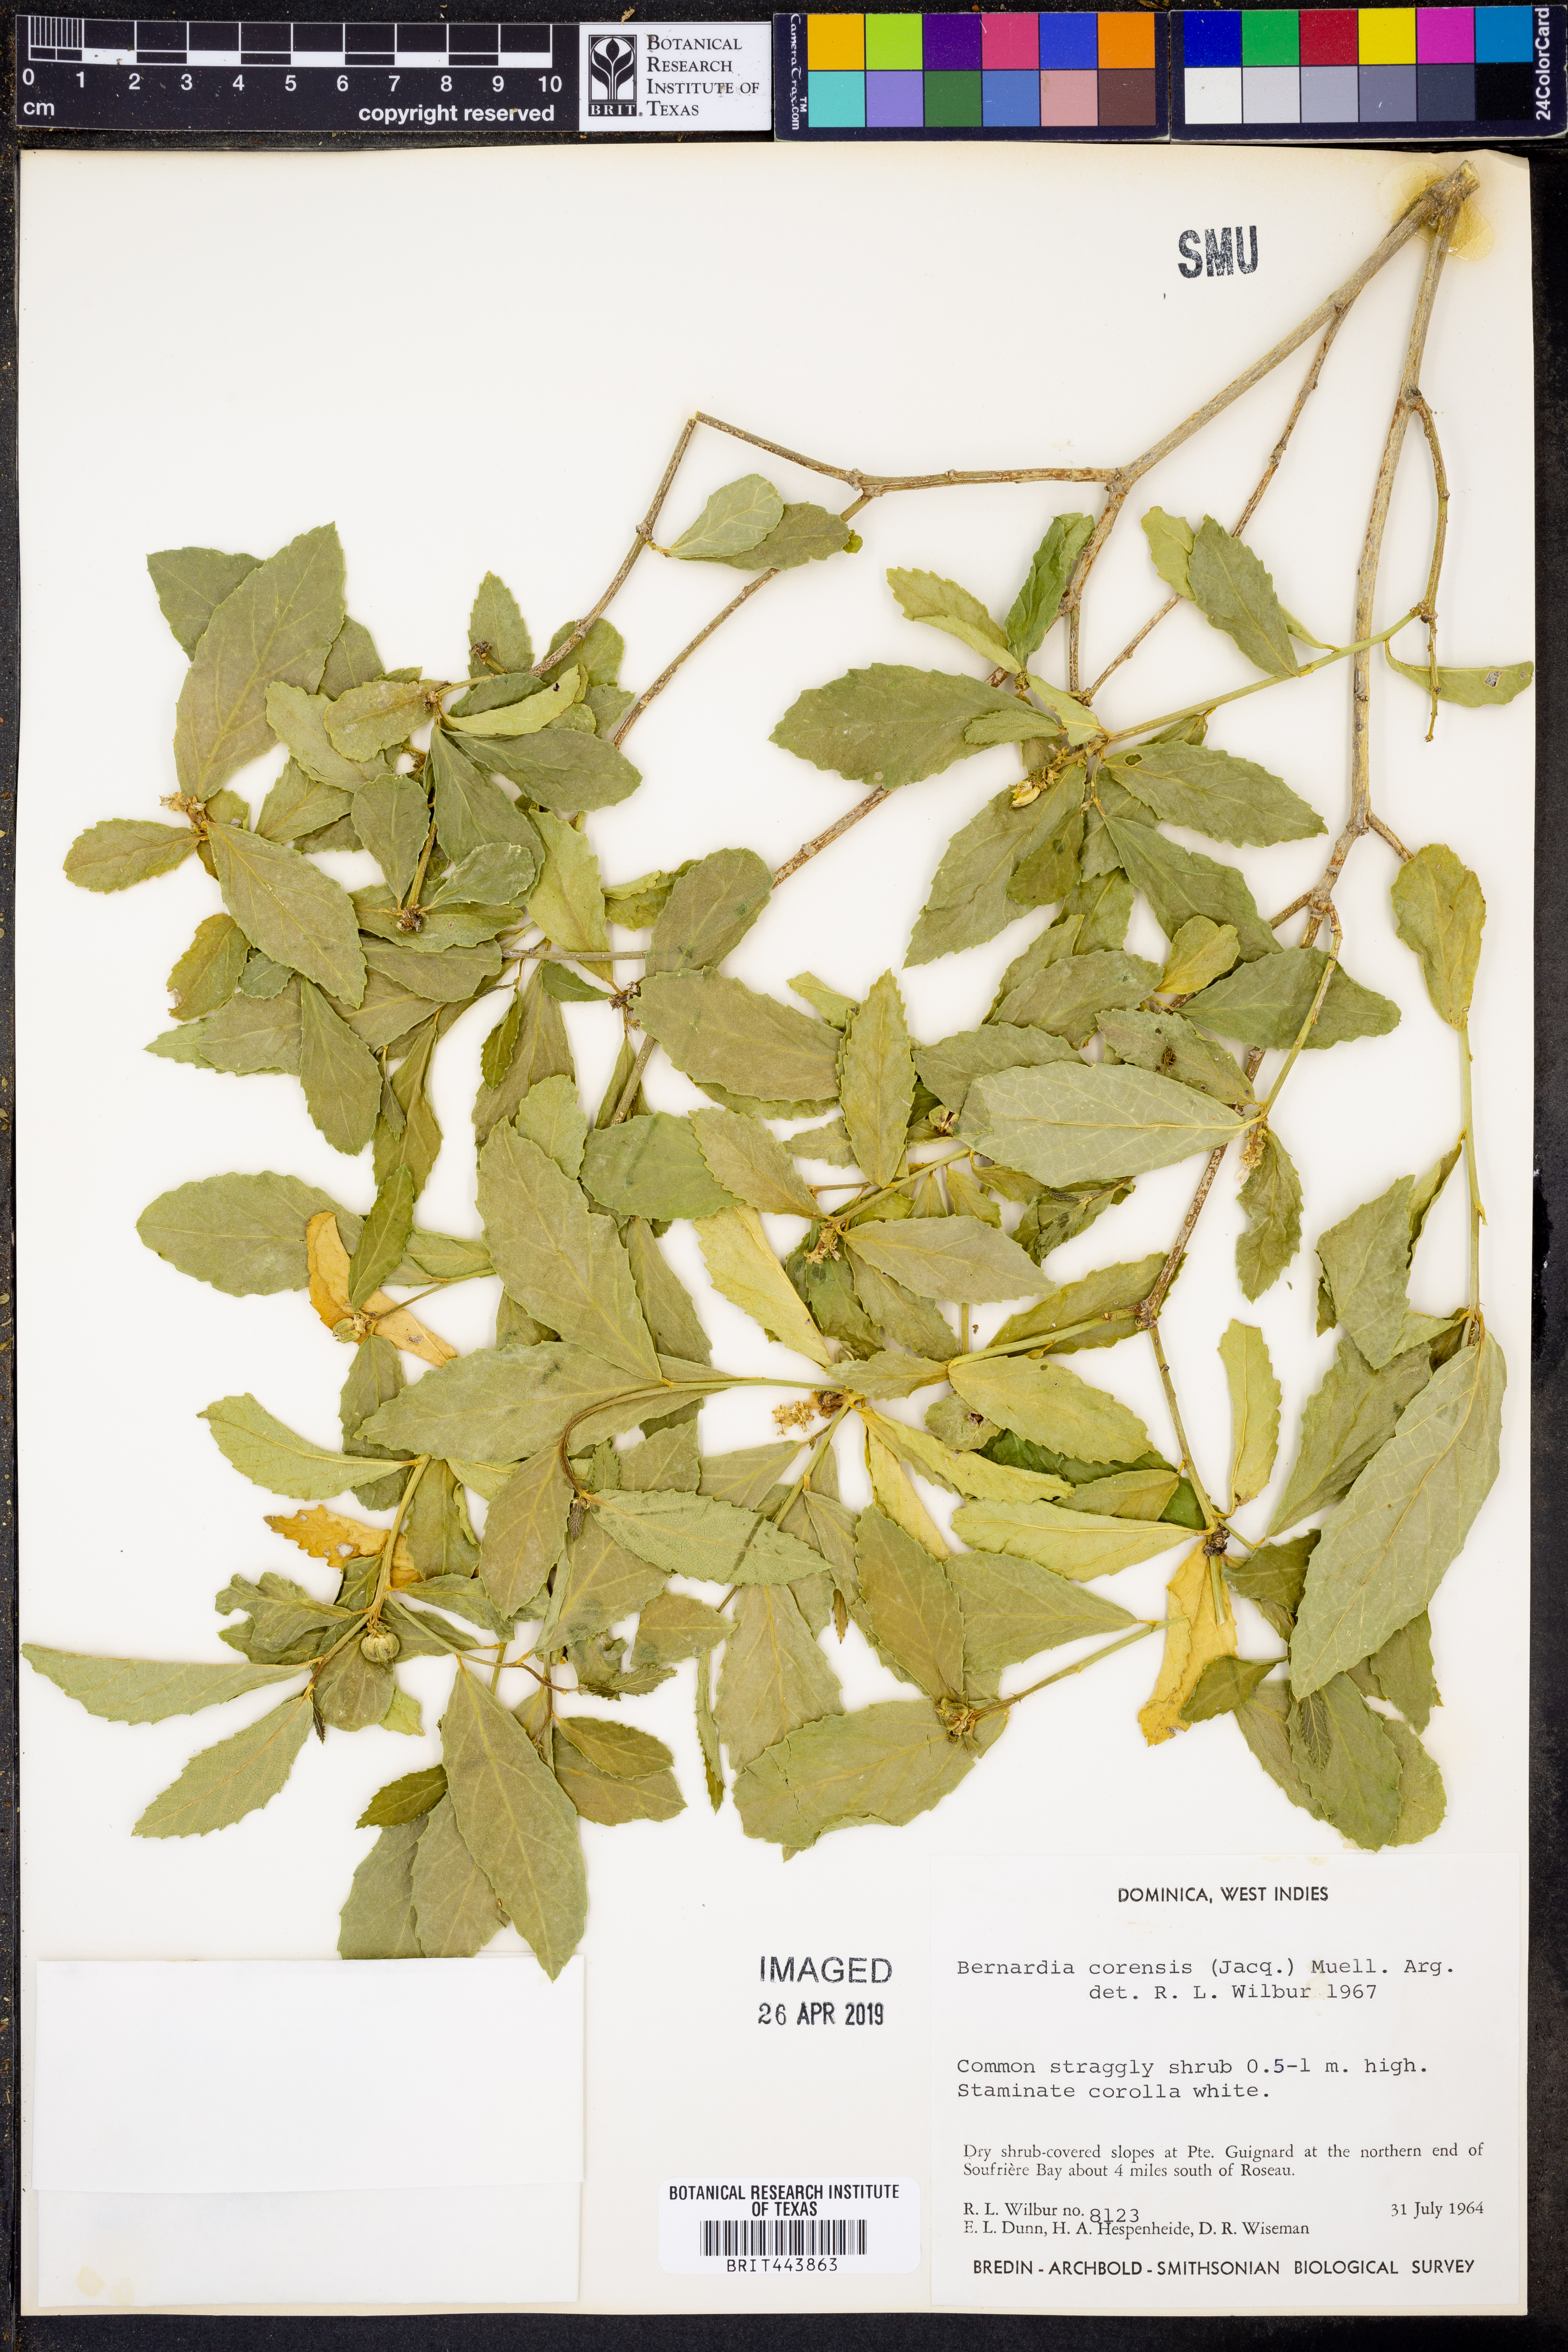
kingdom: Plantae
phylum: Tracheophyta
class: Magnoliopsida
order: Malpighiales
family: Euphorbiaceae
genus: Bernardia
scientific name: Bernardia corensis
